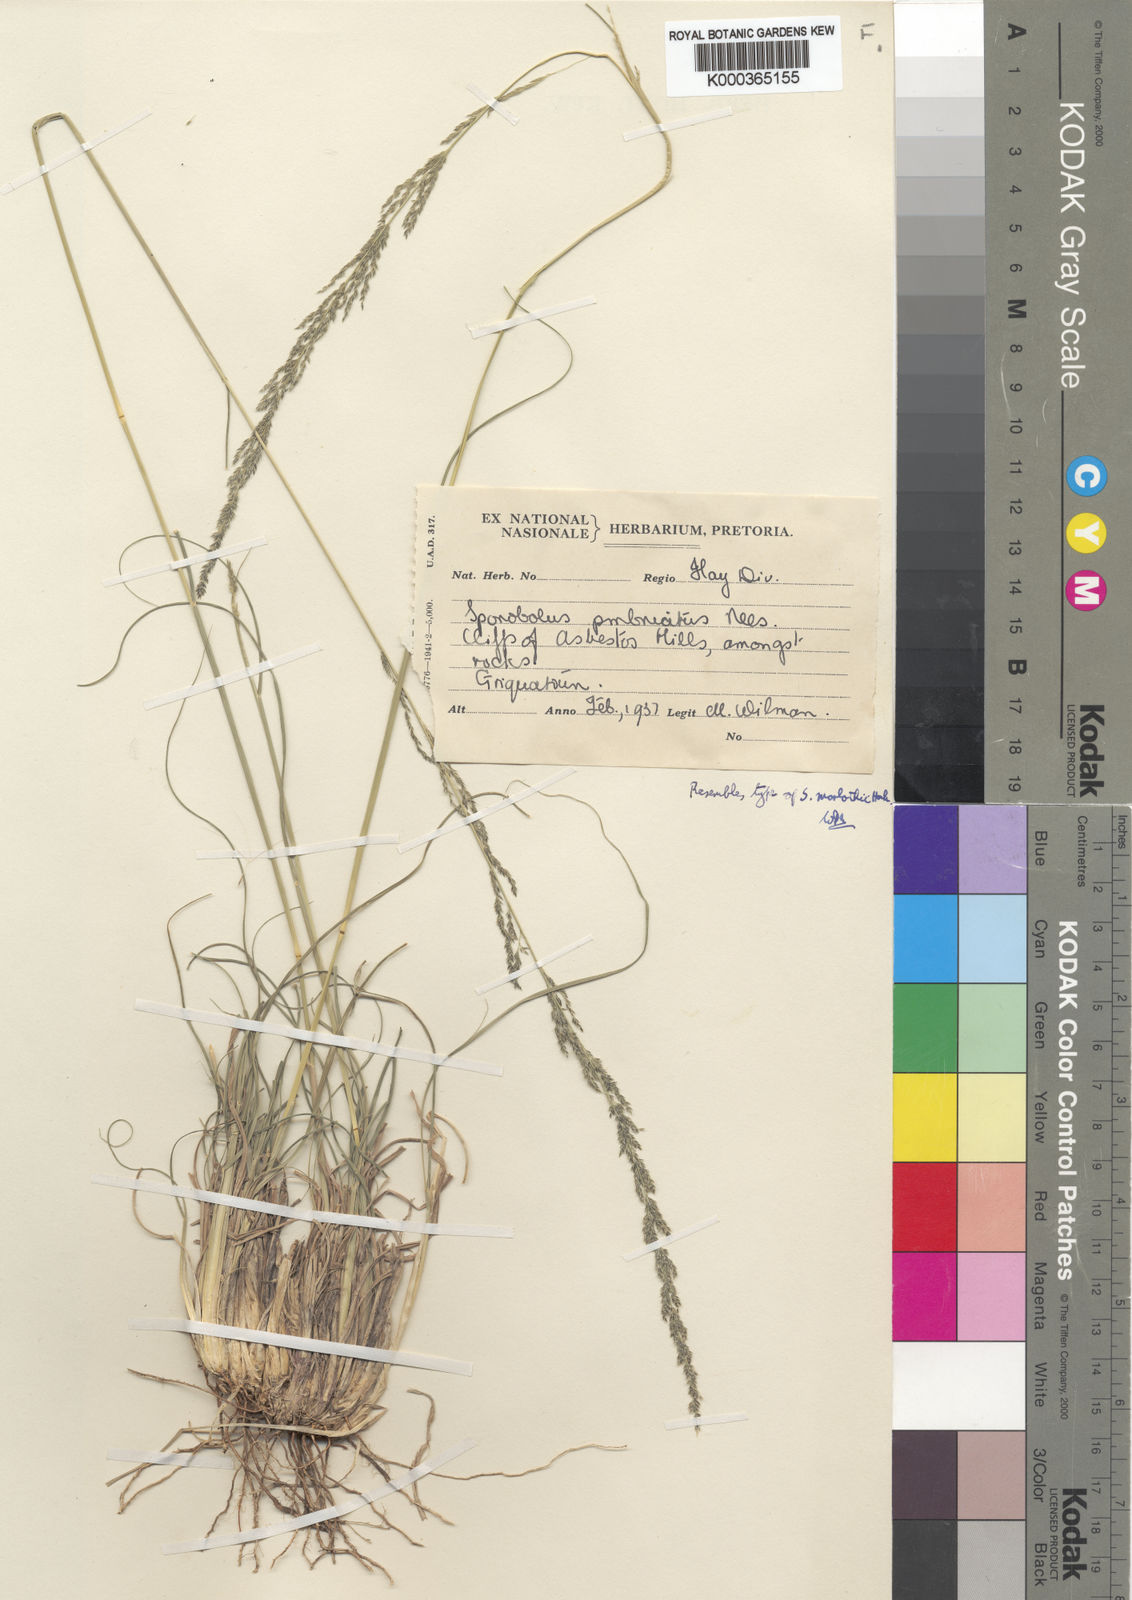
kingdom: Plantae
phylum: Tracheophyta
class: Liliopsida
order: Poales
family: Poaceae
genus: Sporobolus
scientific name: Sporobolus fimbriatus
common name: Fringed dropseed
